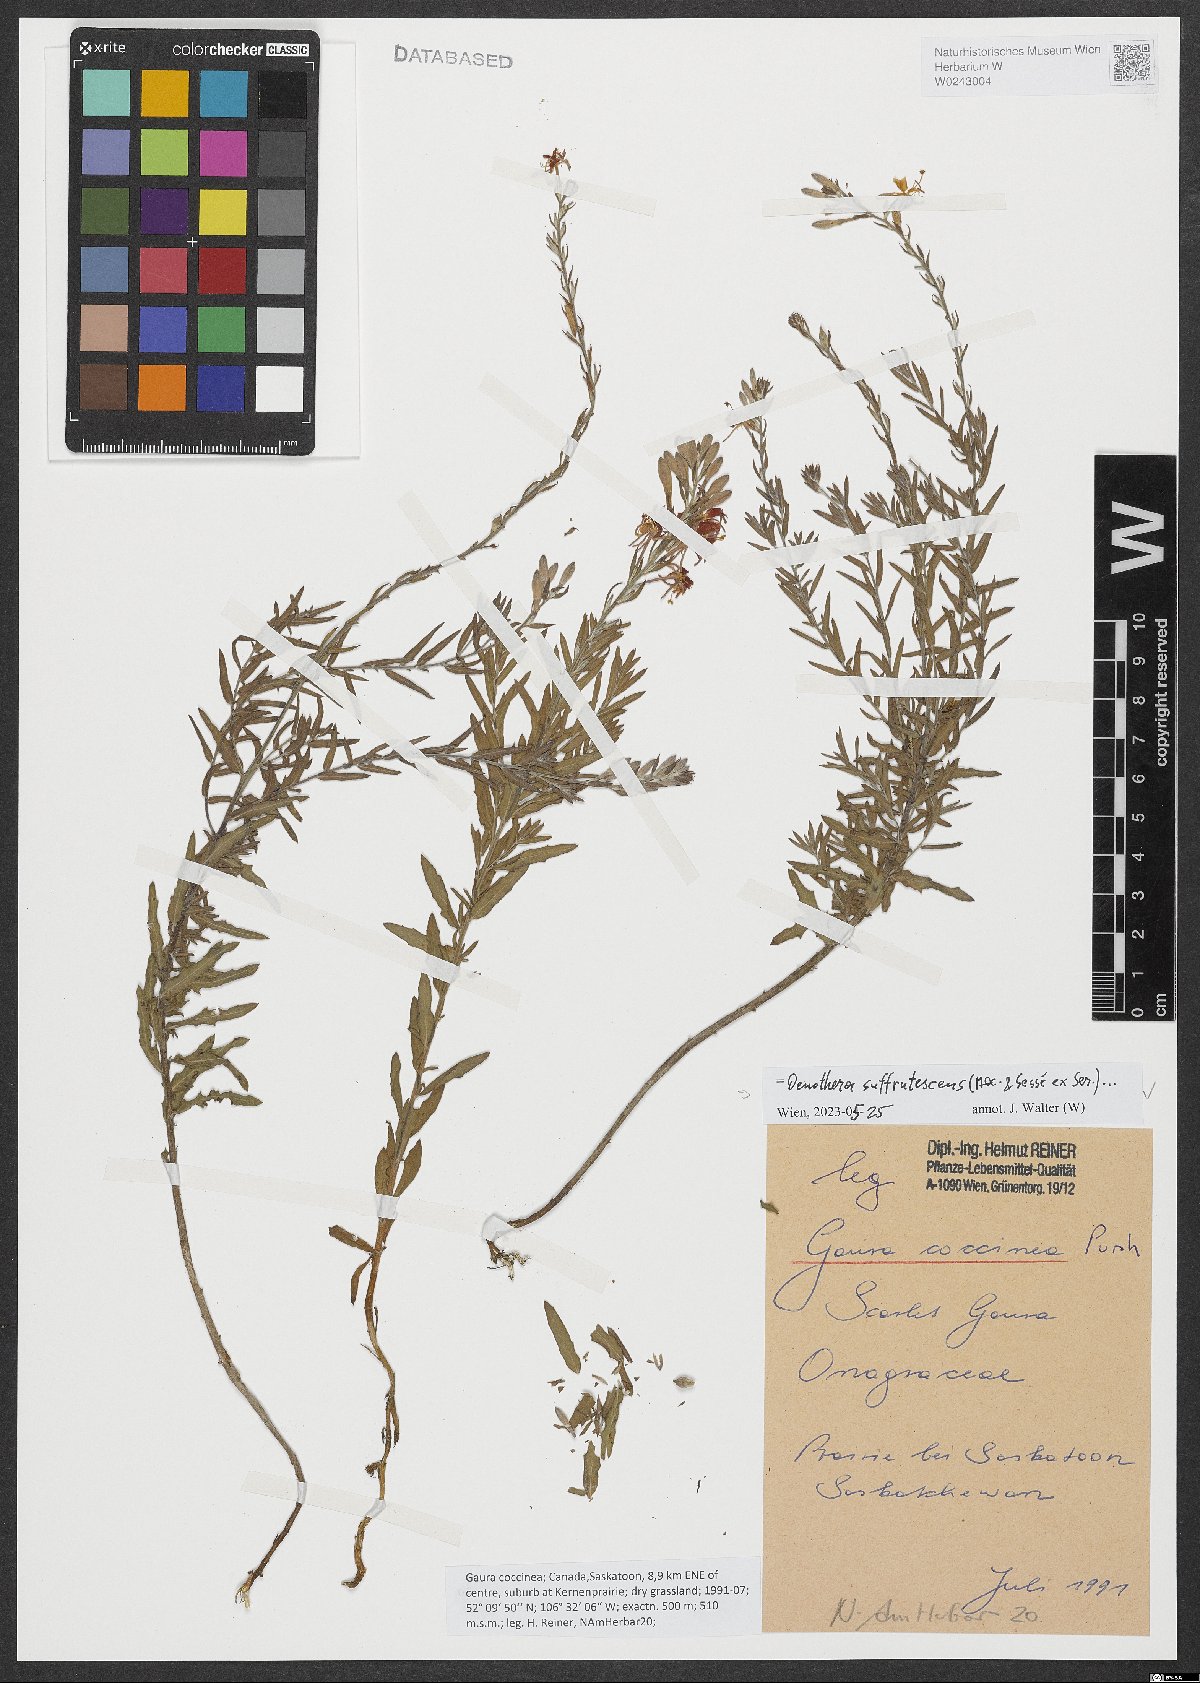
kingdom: Plantae
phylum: Tracheophyta
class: Magnoliopsida
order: Myrtales
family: Onagraceae
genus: Oenothera
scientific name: Oenothera suffrutescens
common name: Scarlet beeblossom
